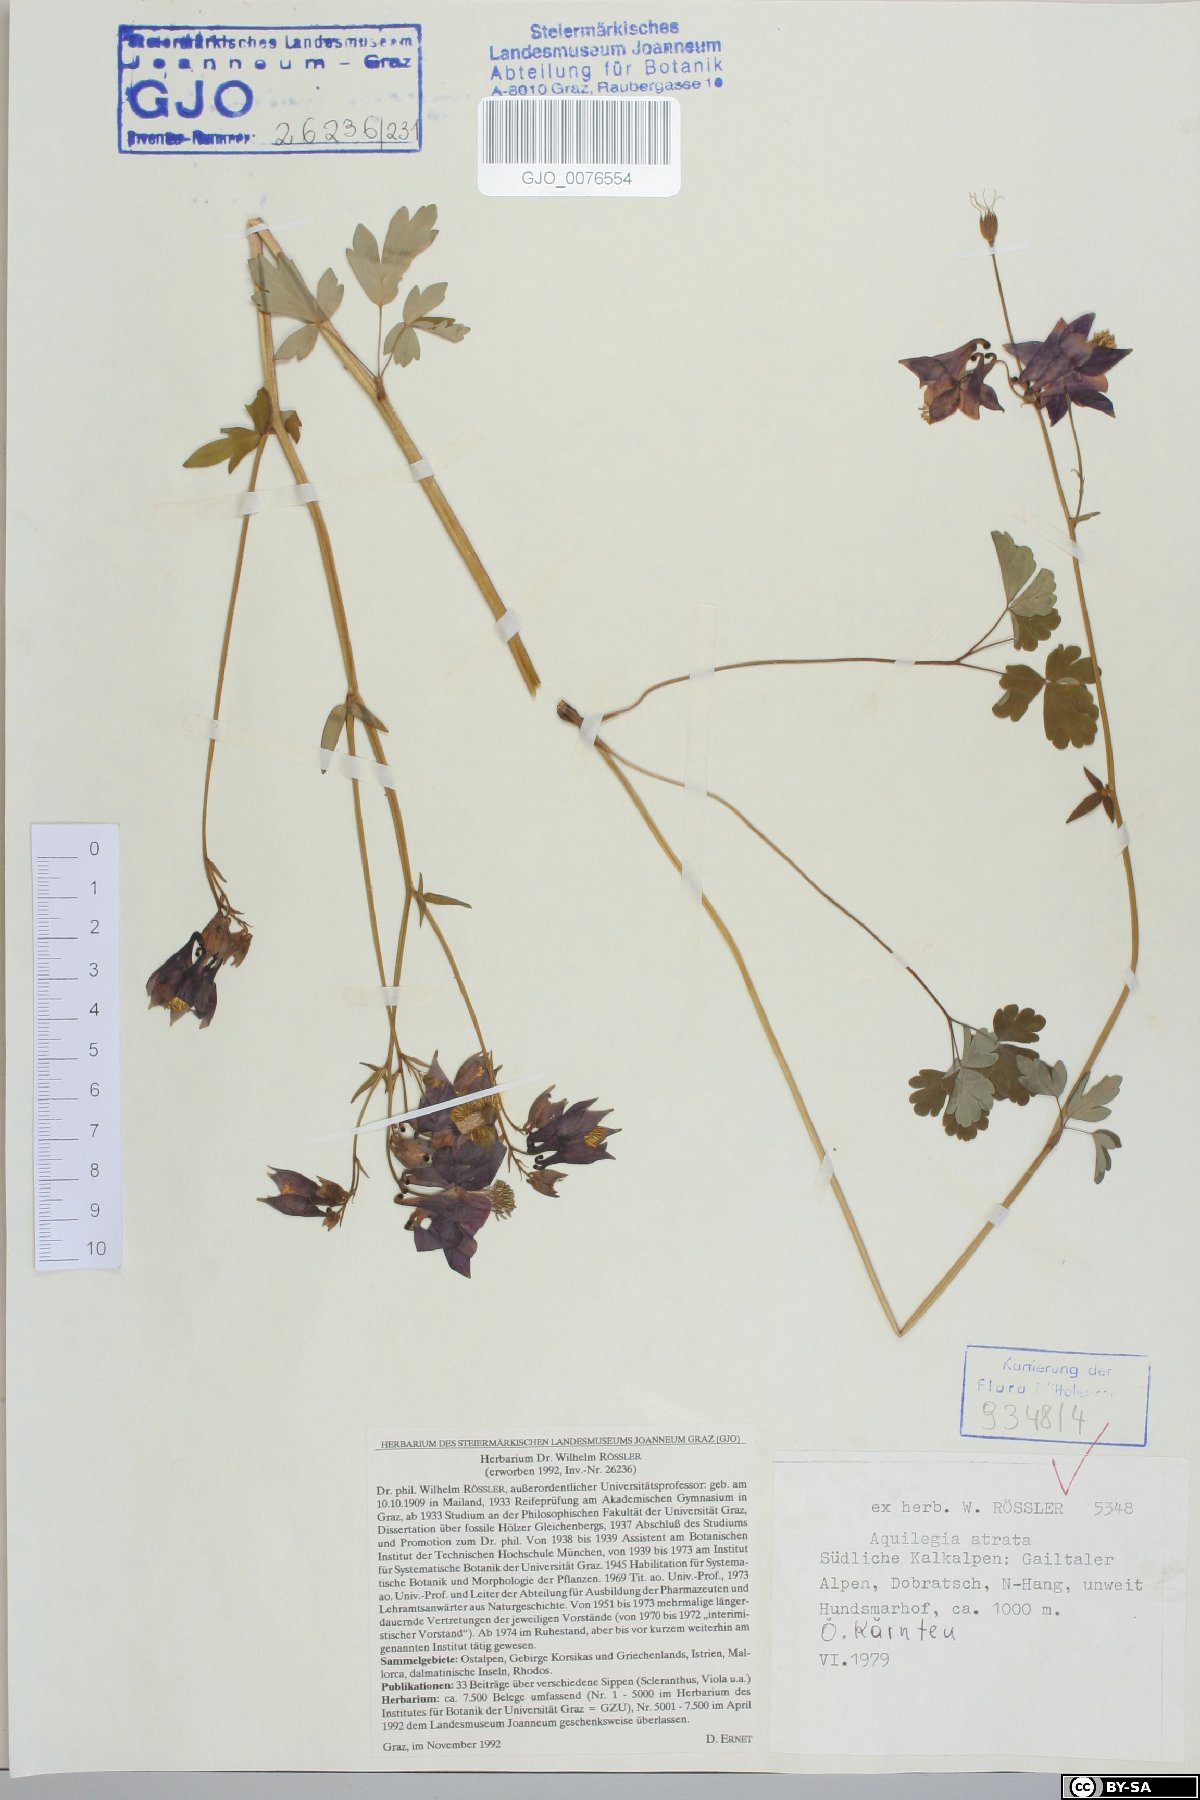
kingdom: Plantae
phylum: Tracheophyta
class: Magnoliopsida
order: Ranunculales
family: Ranunculaceae
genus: Aquilegia
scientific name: Aquilegia atrata
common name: Dark columbine
